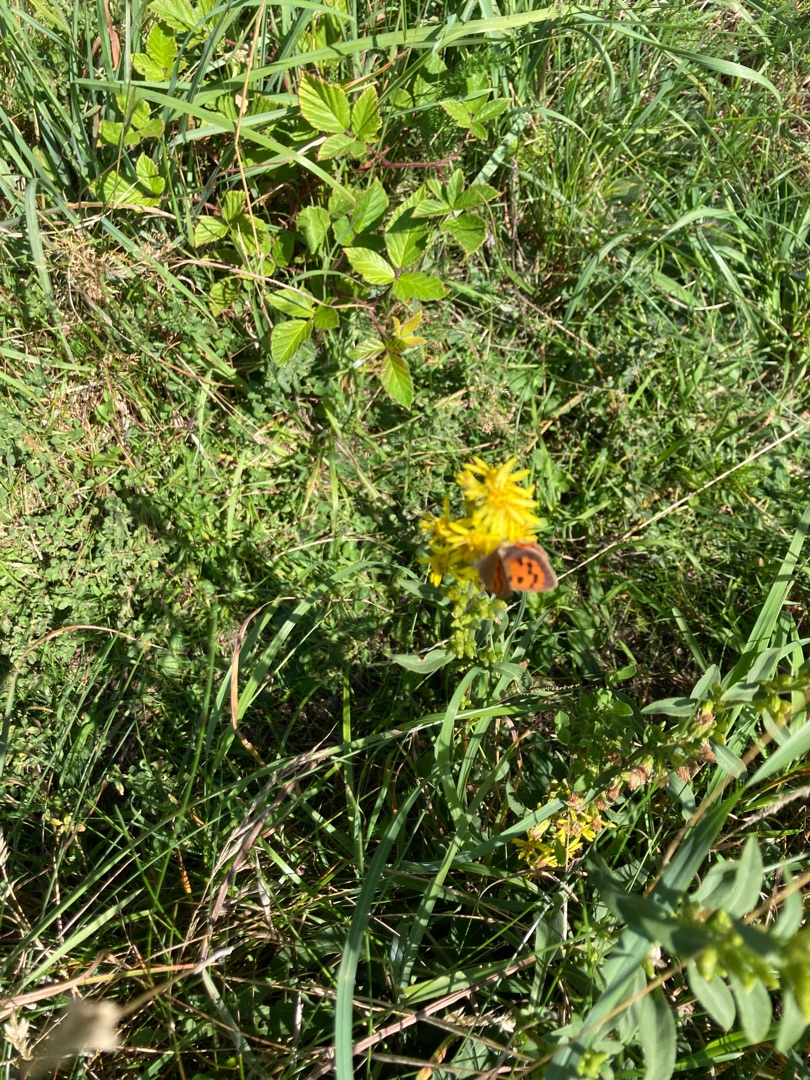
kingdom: Animalia
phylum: Arthropoda
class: Insecta
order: Lepidoptera
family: Lycaenidae
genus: Lycaena
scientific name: Lycaena phlaeas
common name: Lille ildfugl
